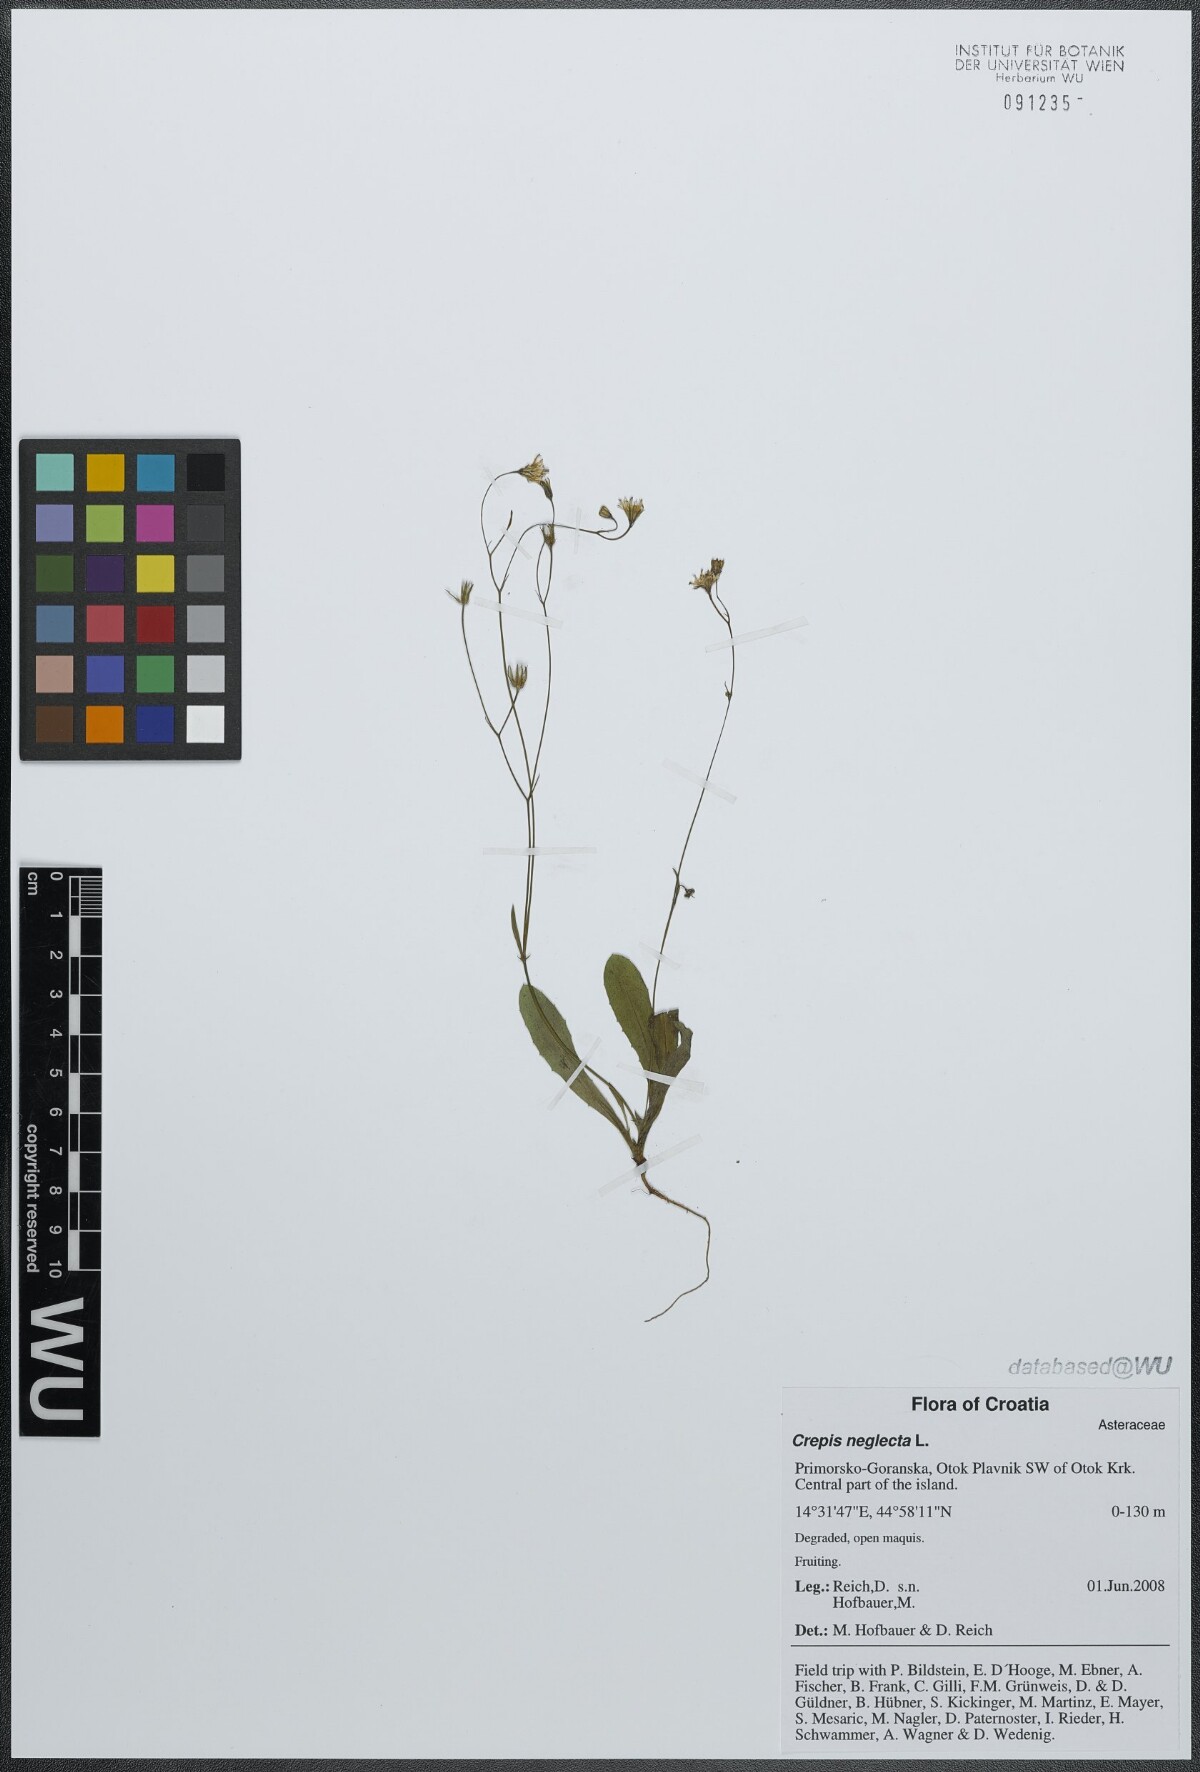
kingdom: Plantae
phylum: Tracheophyta
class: Magnoliopsida
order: Asterales
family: Asteraceae
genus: Crepis
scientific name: Crepis neglecta
